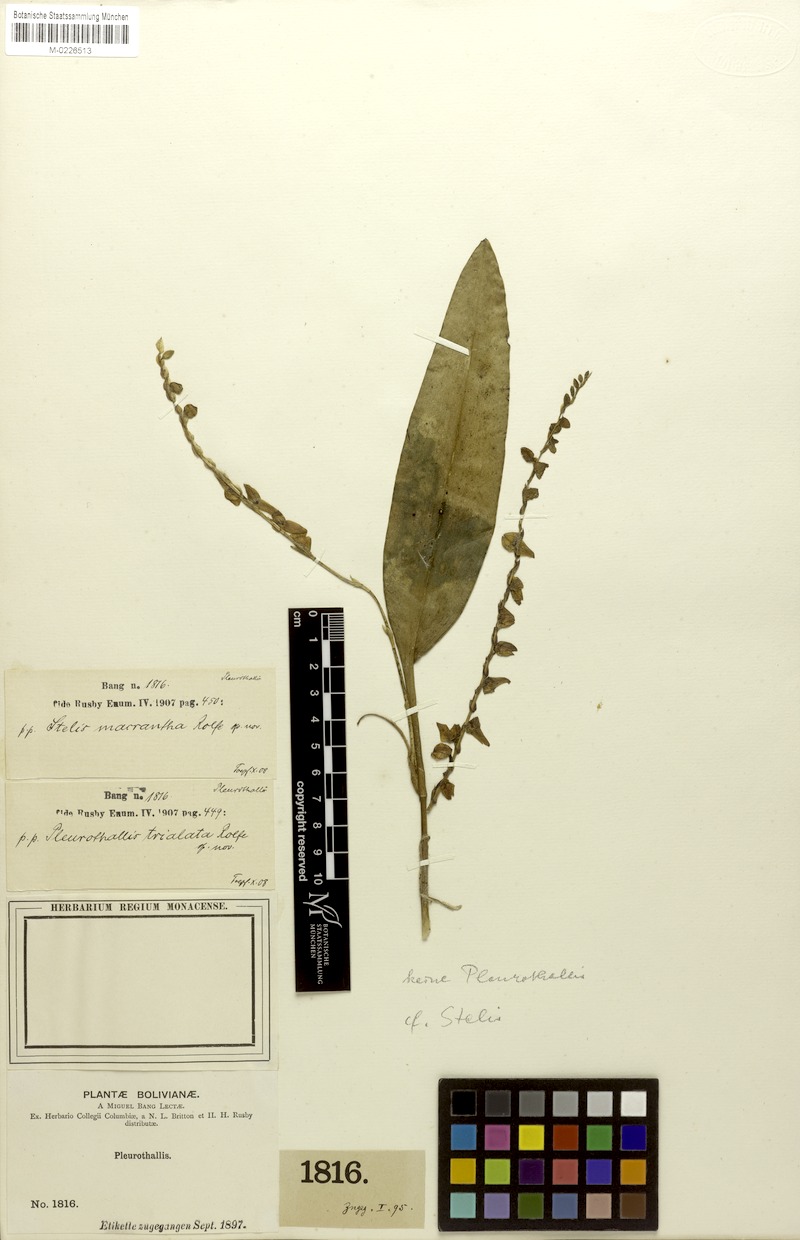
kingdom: Plantae
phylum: Tracheophyta
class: Liliopsida
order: Asparagales
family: Orchidaceae
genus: Stelis
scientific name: Stelis purpurea
